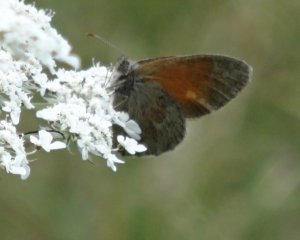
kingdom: Animalia
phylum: Arthropoda
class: Insecta
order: Lepidoptera
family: Nymphalidae
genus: Coenonympha
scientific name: Coenonympha tullia
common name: Large Heath
